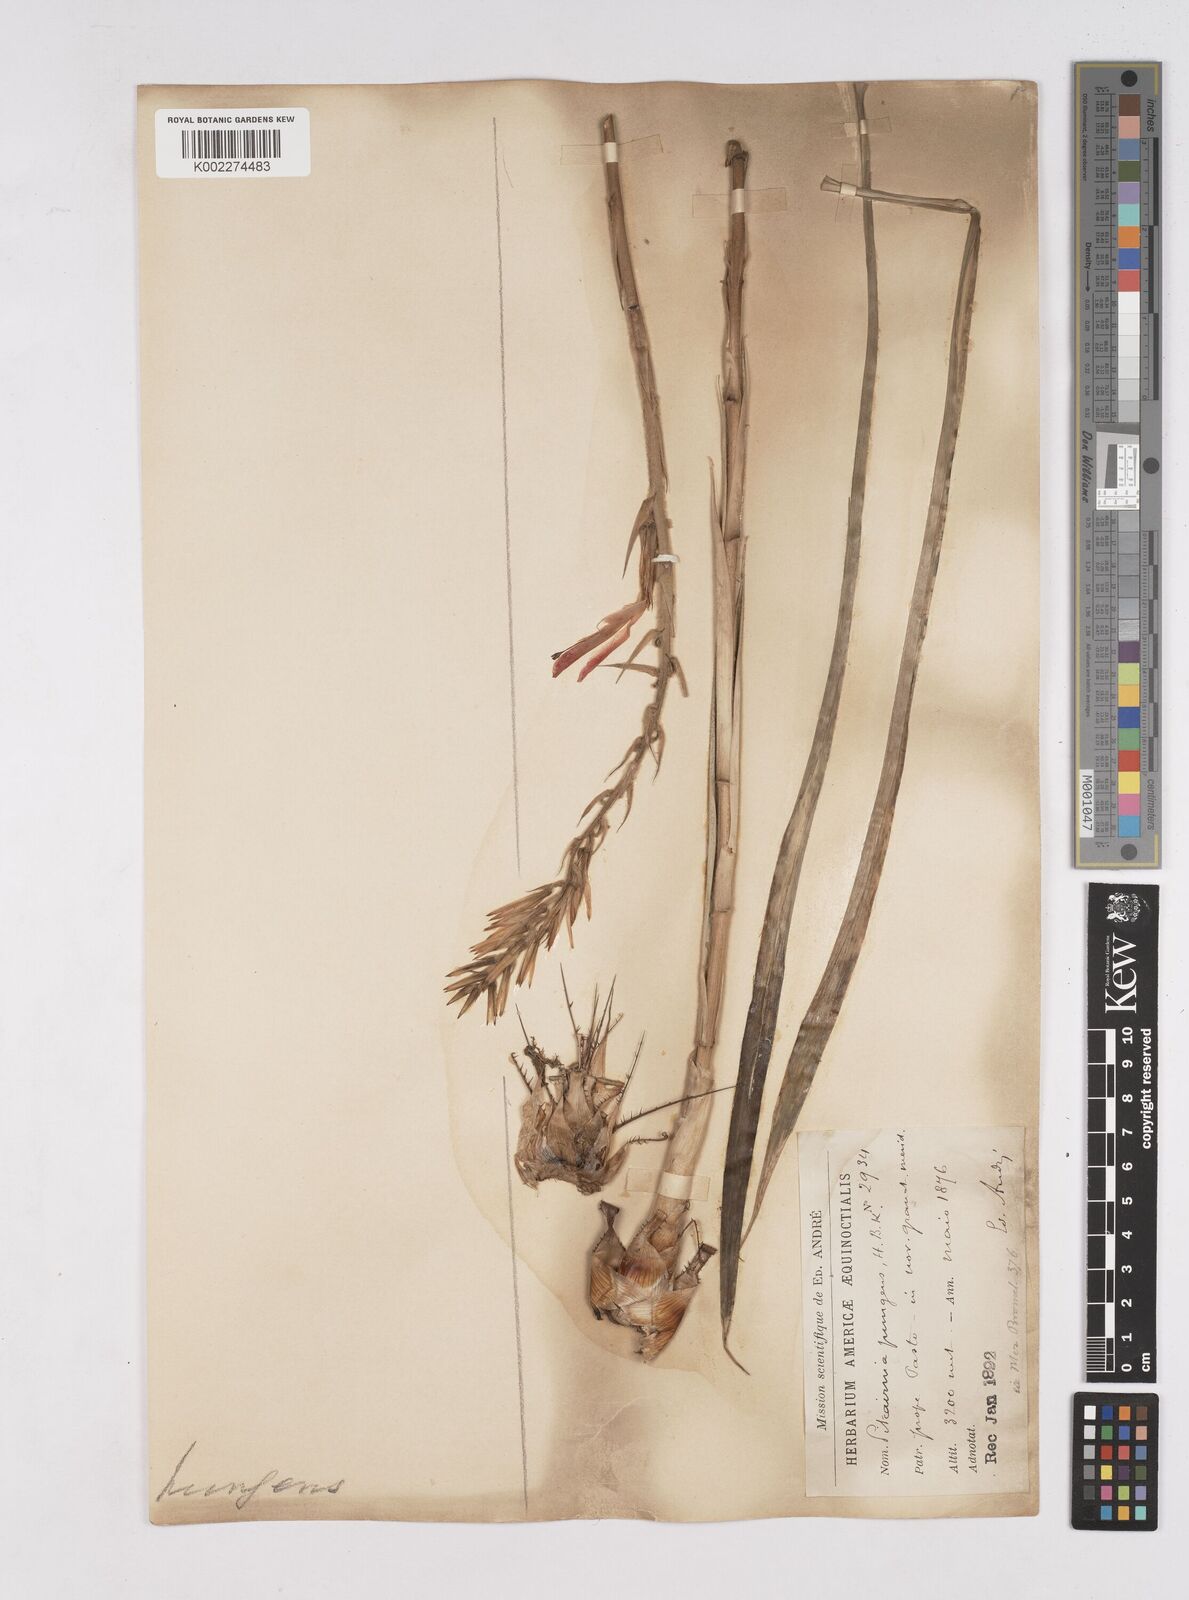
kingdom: Plantae
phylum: Tracheophyta
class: Liliopsida
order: Poales
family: Bromeliaceae
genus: Pitcairnia
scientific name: Pitcairnia pungens
